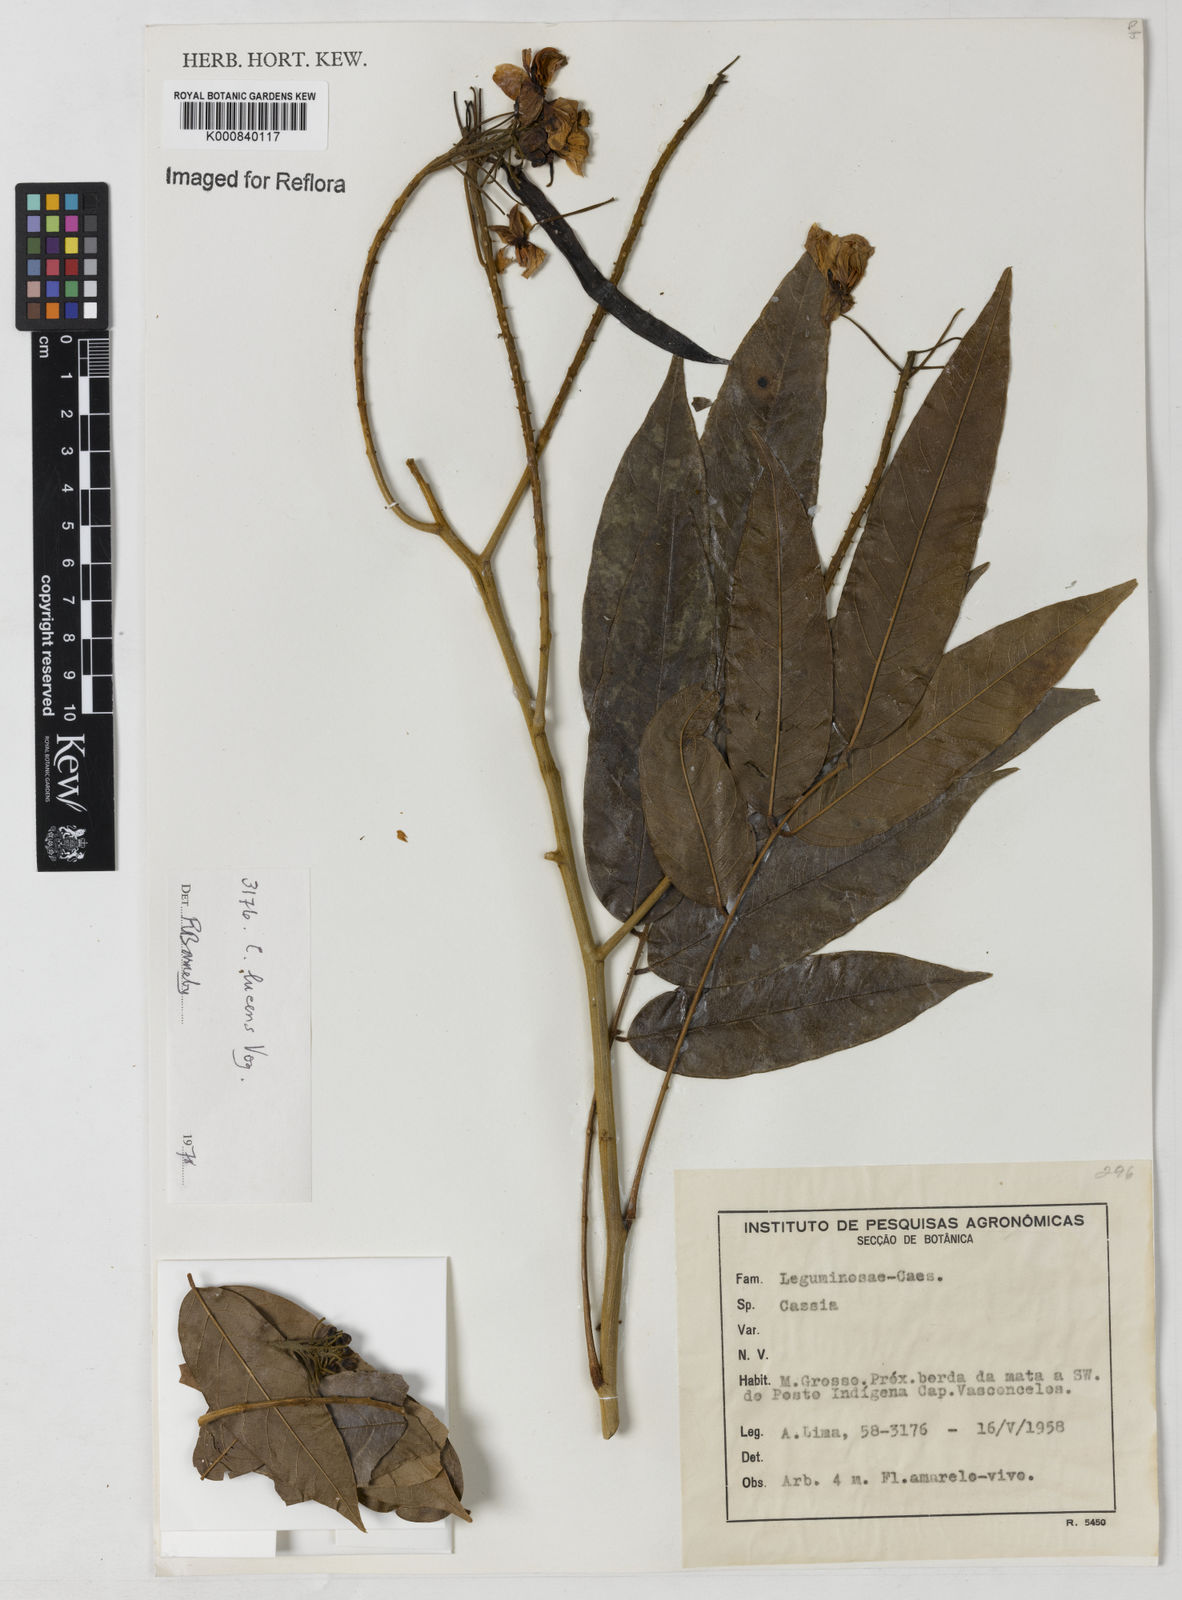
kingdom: Plantae
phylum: Tracheophyta
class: Magnoliopsida
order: Fabales
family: Fabaceae
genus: Senna
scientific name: Senna silvestris
